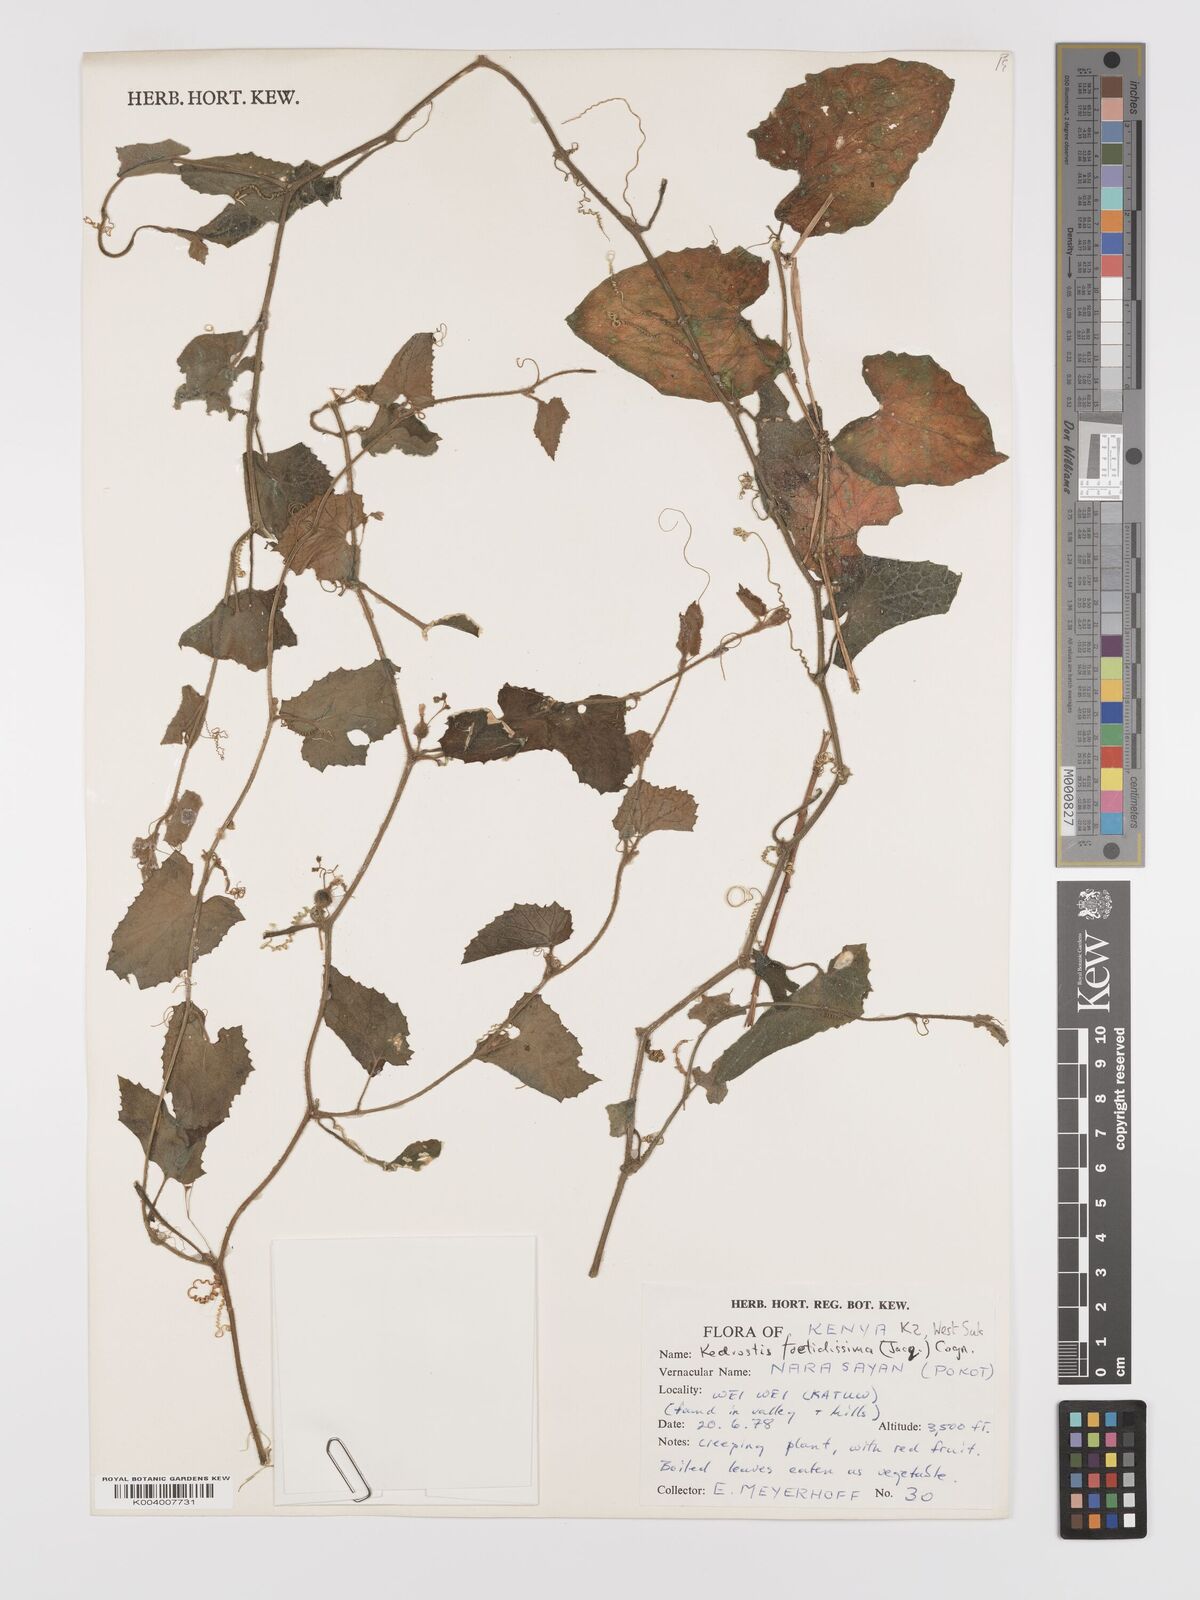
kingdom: Plantae
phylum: Tracheophyta
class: Magnoliopsida
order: Cucurbitales
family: Cucurbitaceae
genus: Kedrostis
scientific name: Kedrostis foetidissima
